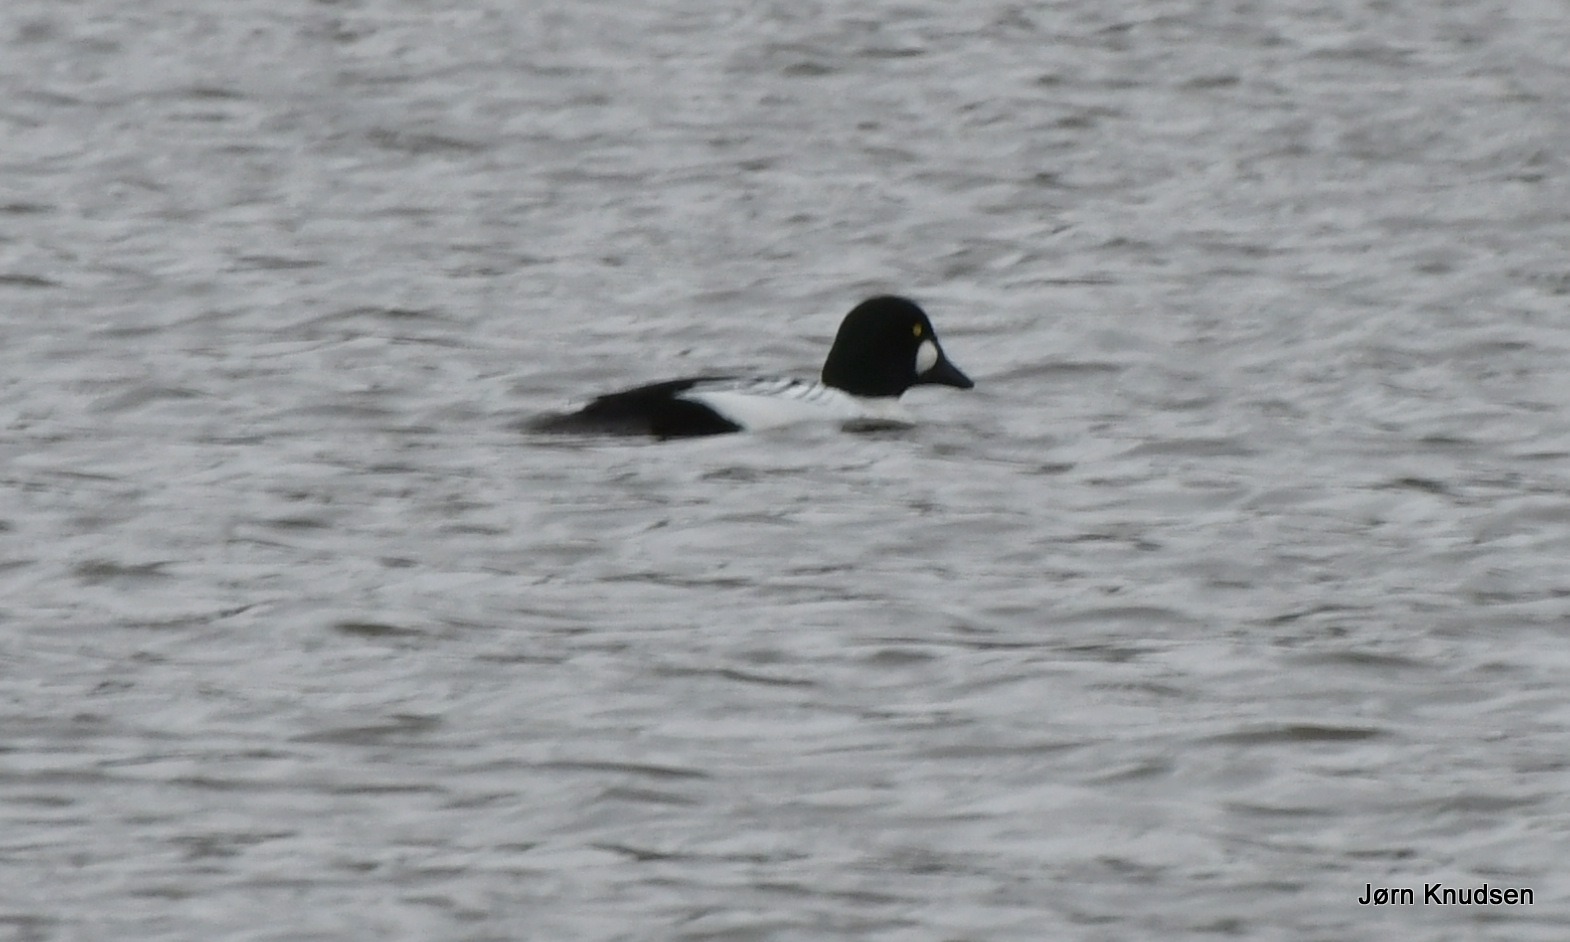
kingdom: Animalia
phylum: Chordata
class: Aves
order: Anseriformes
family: Anatidae
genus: Bucephala
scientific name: Bucephala clangula
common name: Hvinand
